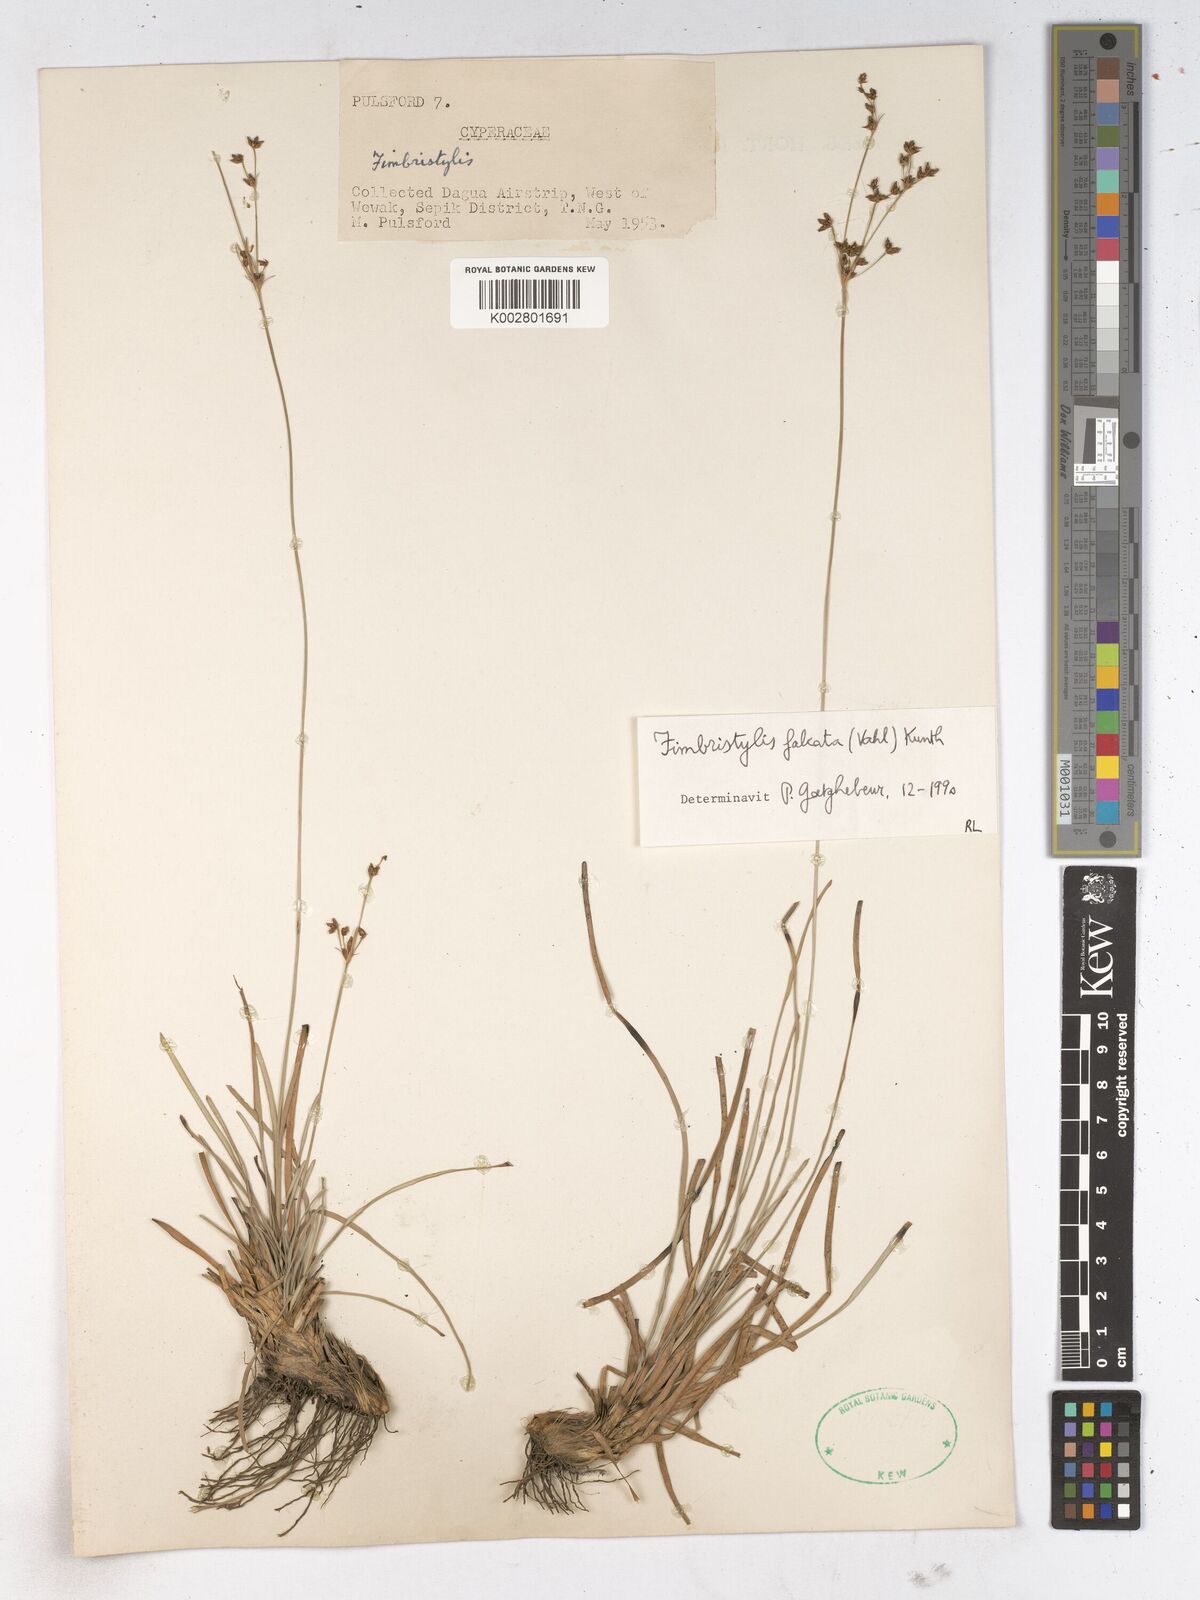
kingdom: Plantae
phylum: Tracheophyta
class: Liliopsida
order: Poales
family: Cyperaceae
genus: Fimbristylis
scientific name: Fimbristylis falcata
